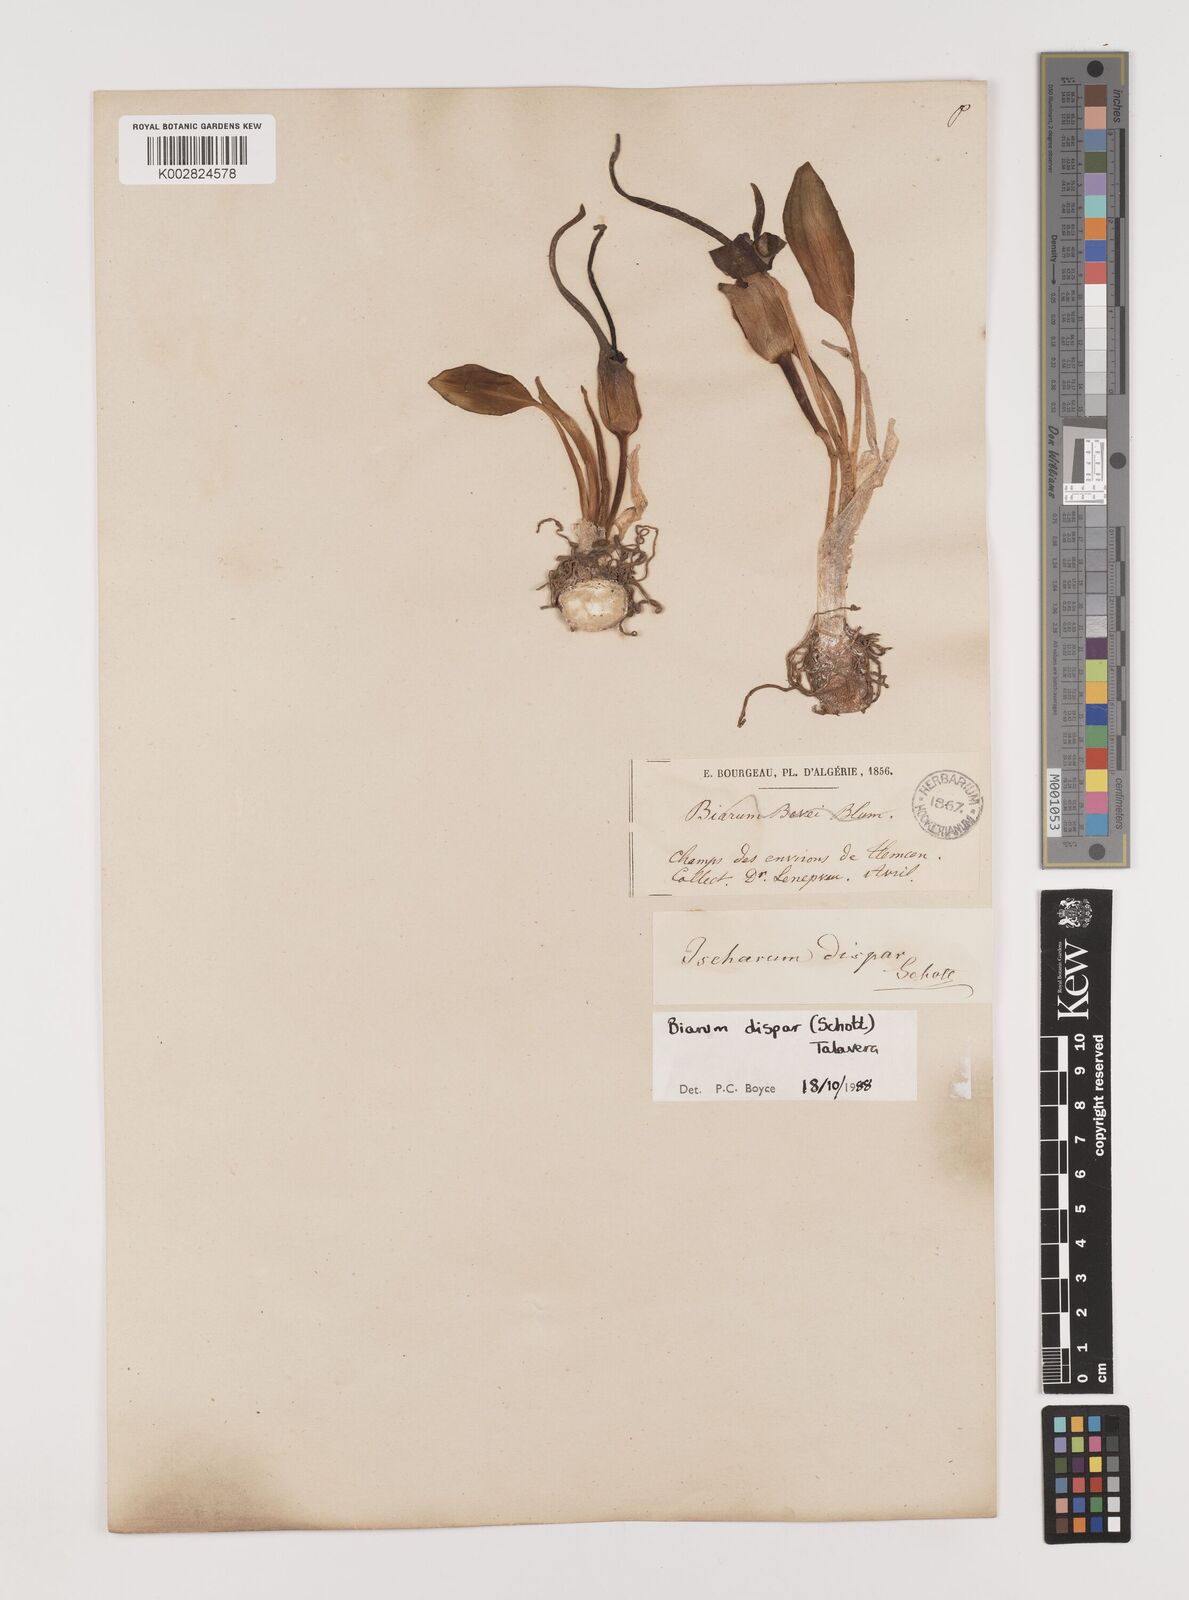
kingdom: Plantae
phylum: Tracheophyta
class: Liliopsida
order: Alismatales
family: Araceae
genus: Biarum
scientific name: Biarum dispar
